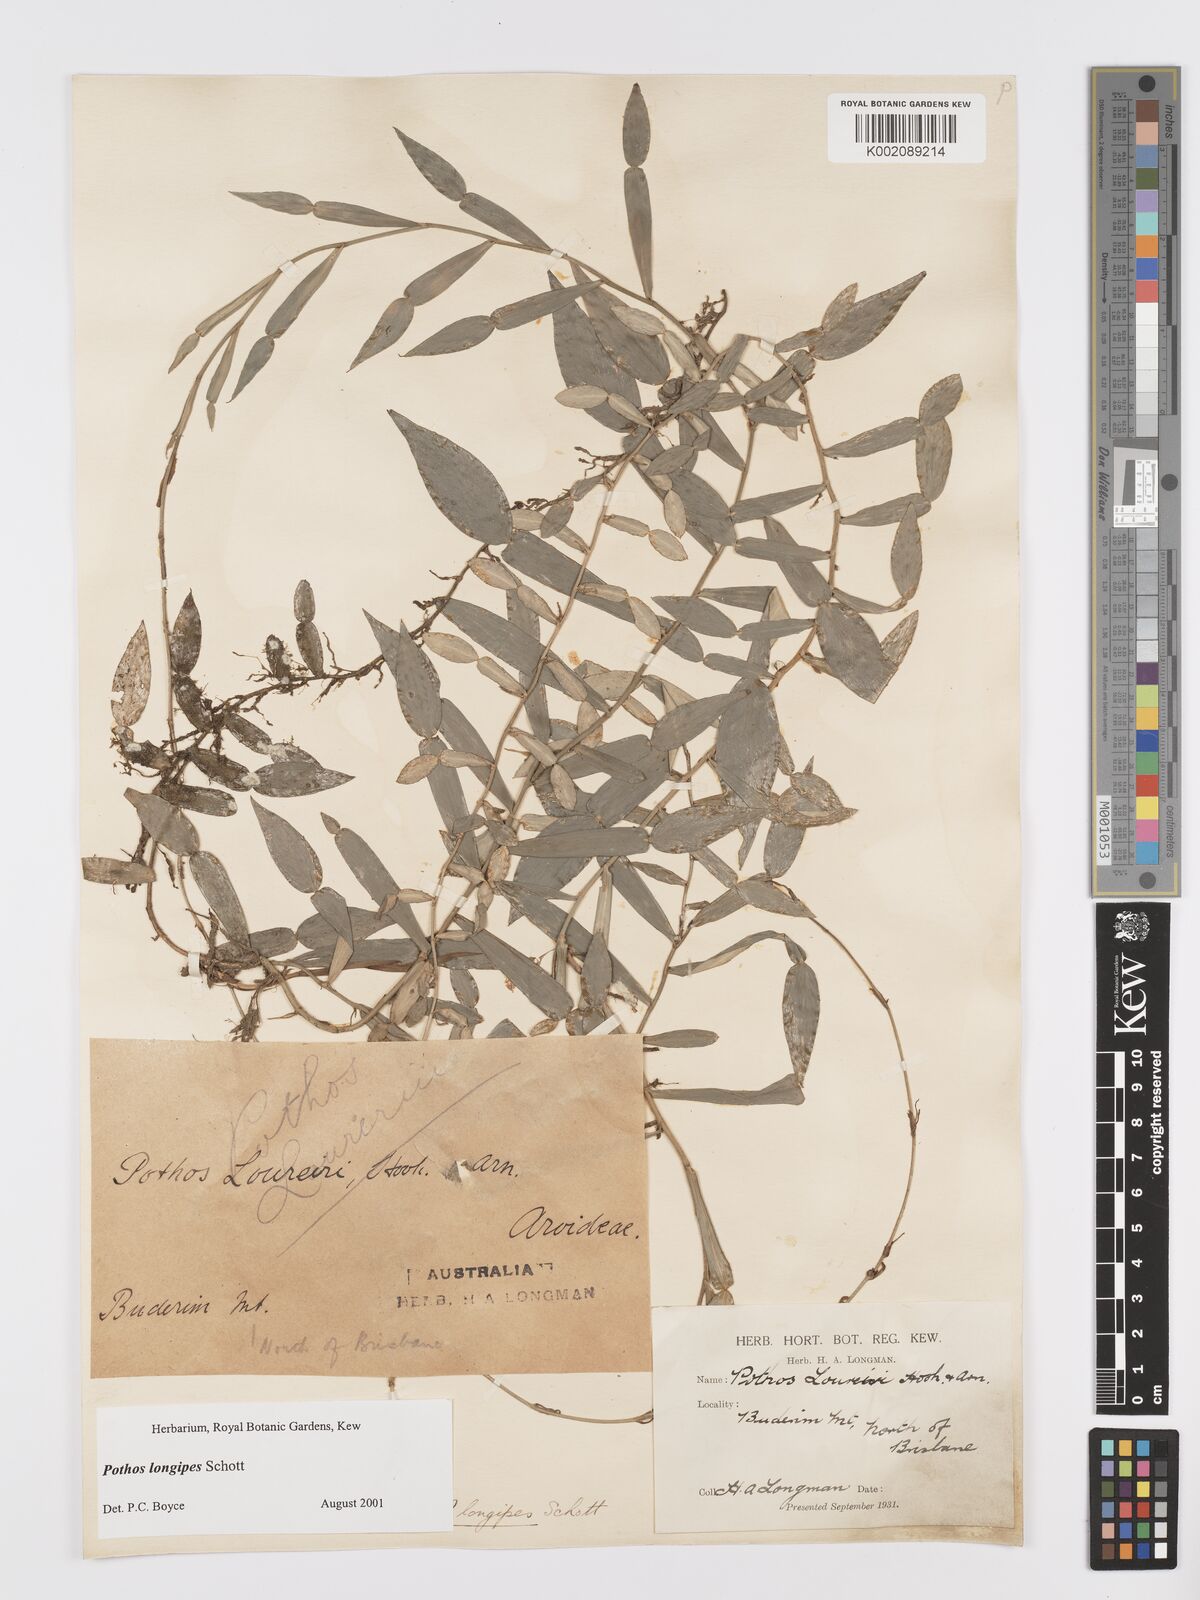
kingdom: Plantae
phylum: Tracheophyta
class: Liliopsida
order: Alismatales
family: Araceae
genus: Pothos
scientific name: Pothos longipes
